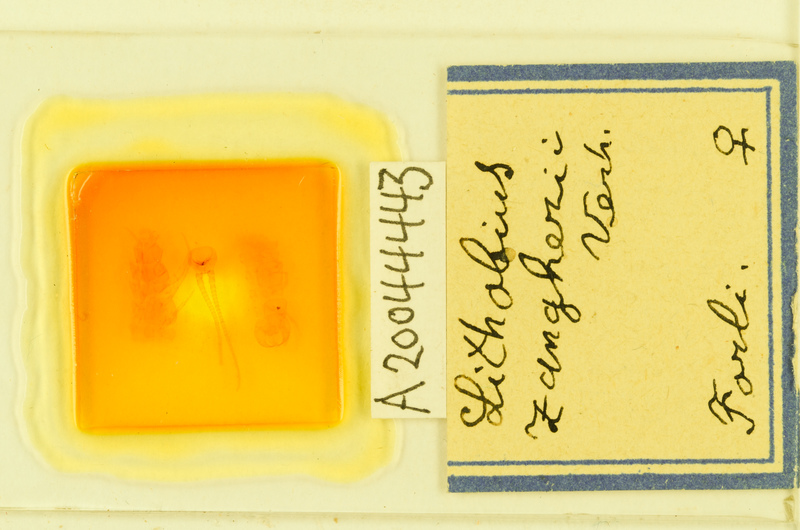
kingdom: Animalia
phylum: Arthropoda
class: Chilopoda
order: Lithobiomorpha
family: Lithobiidae
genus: Lithobius
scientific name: Lithobius
